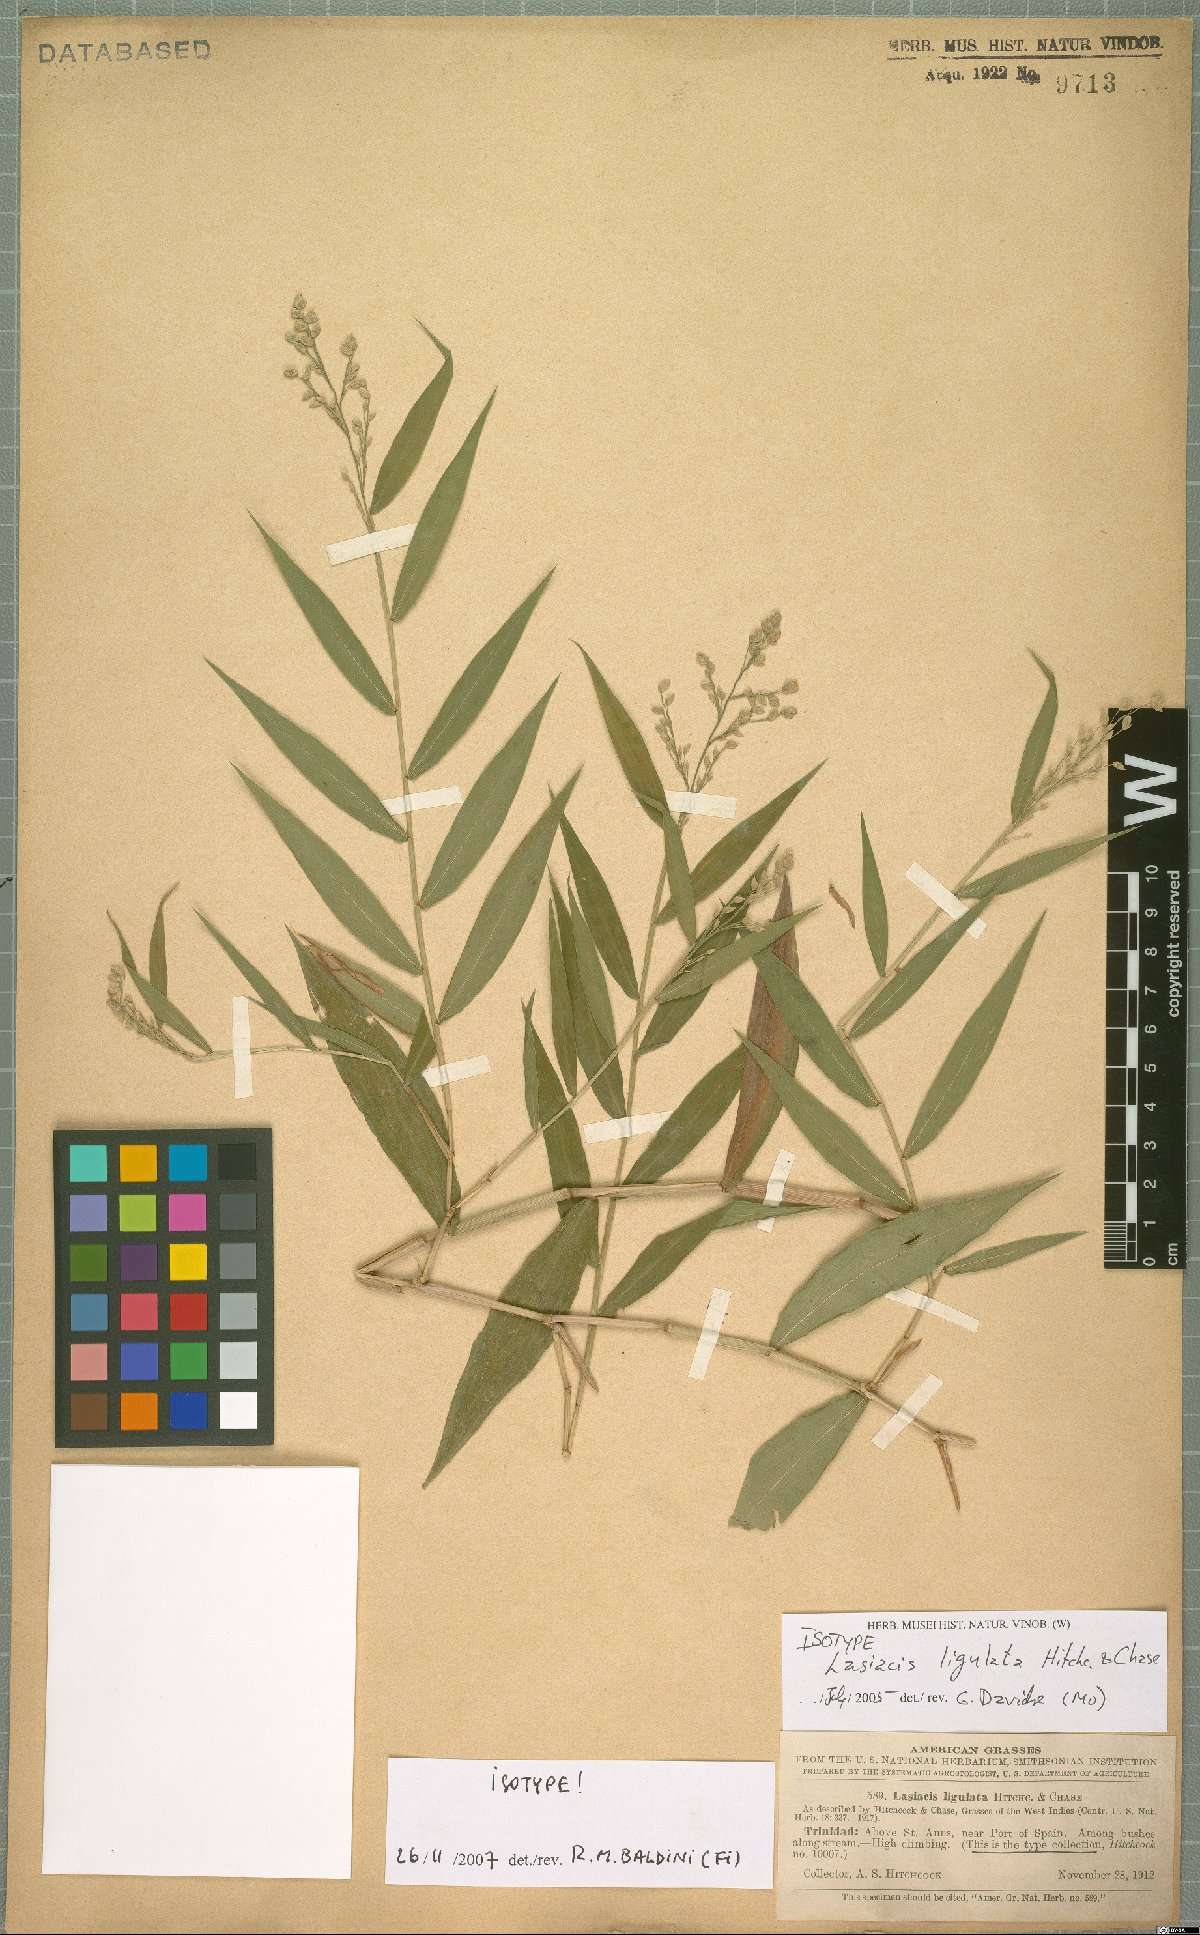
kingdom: Plantae
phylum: Tracheophyta
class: Liliopsida
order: Poales
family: Poaceae
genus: Lasiacis
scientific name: Lasiacis ligulata
